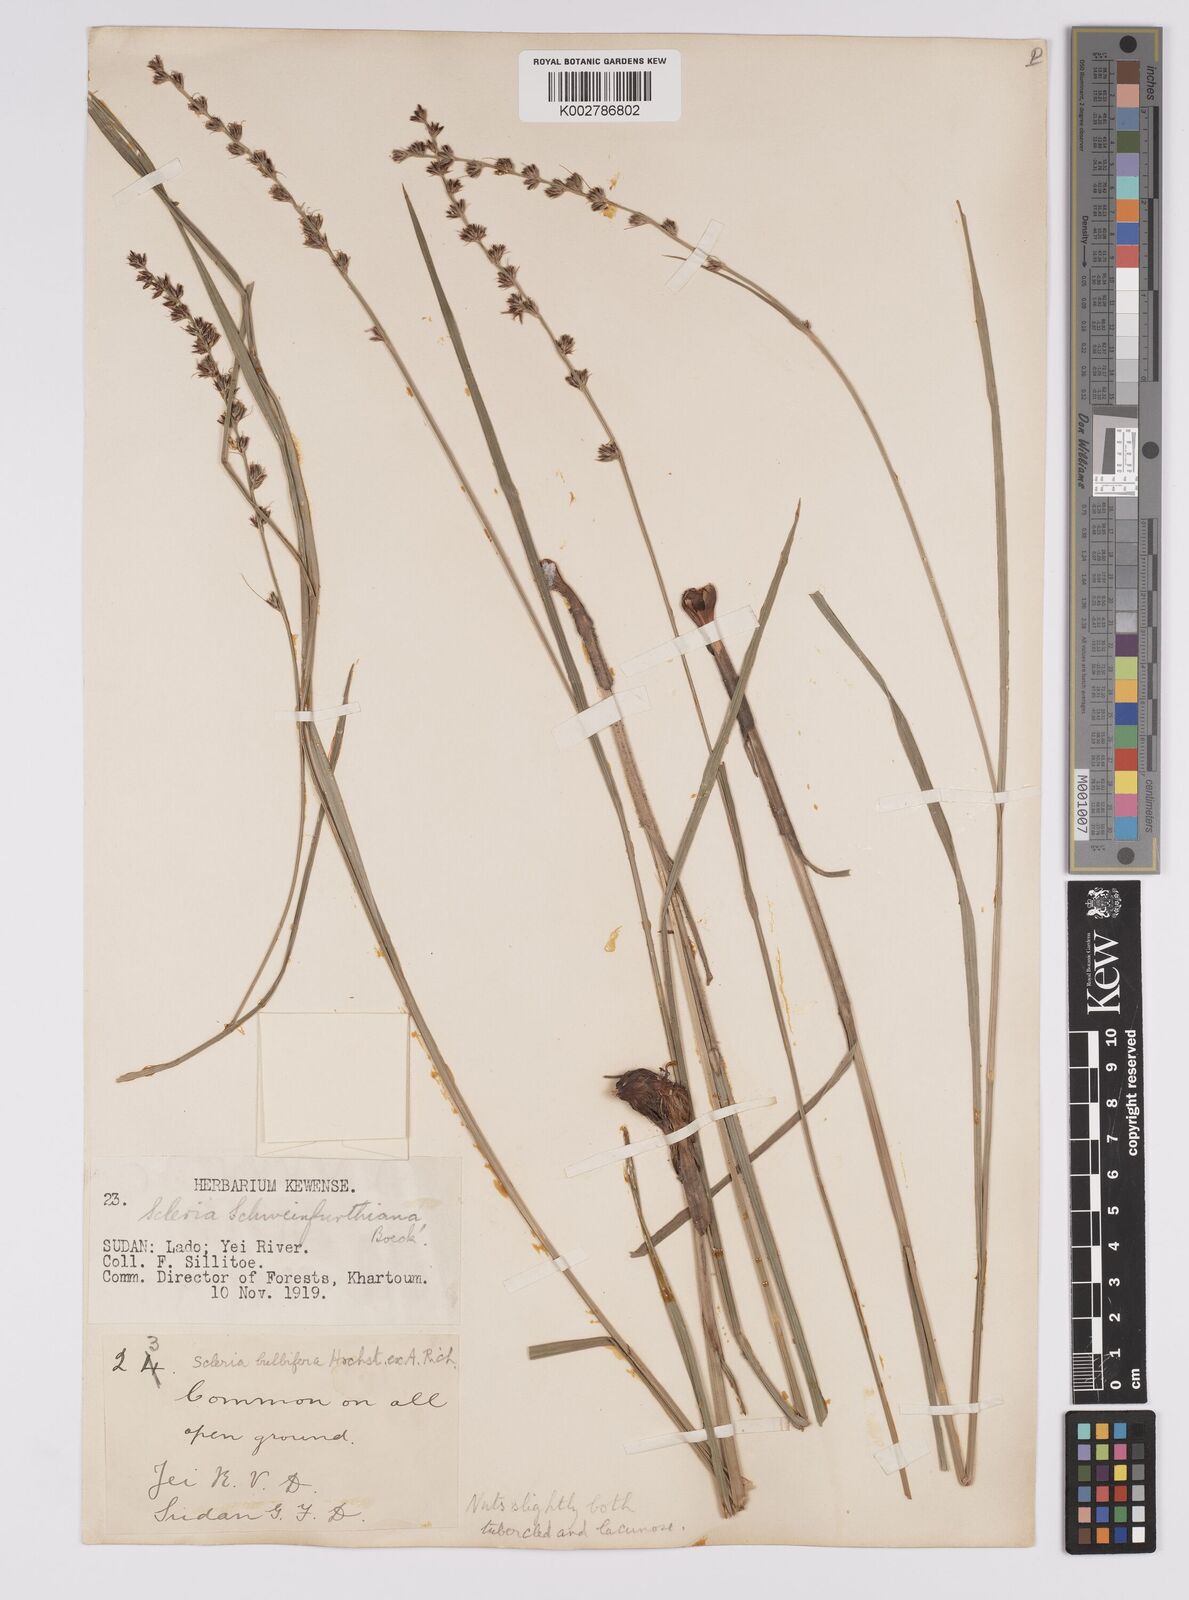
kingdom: Plantae
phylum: Tracheophyta
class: Liliopsida
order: Poales
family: Cyperaceae
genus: Scleria
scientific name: Scleria bulbifera
